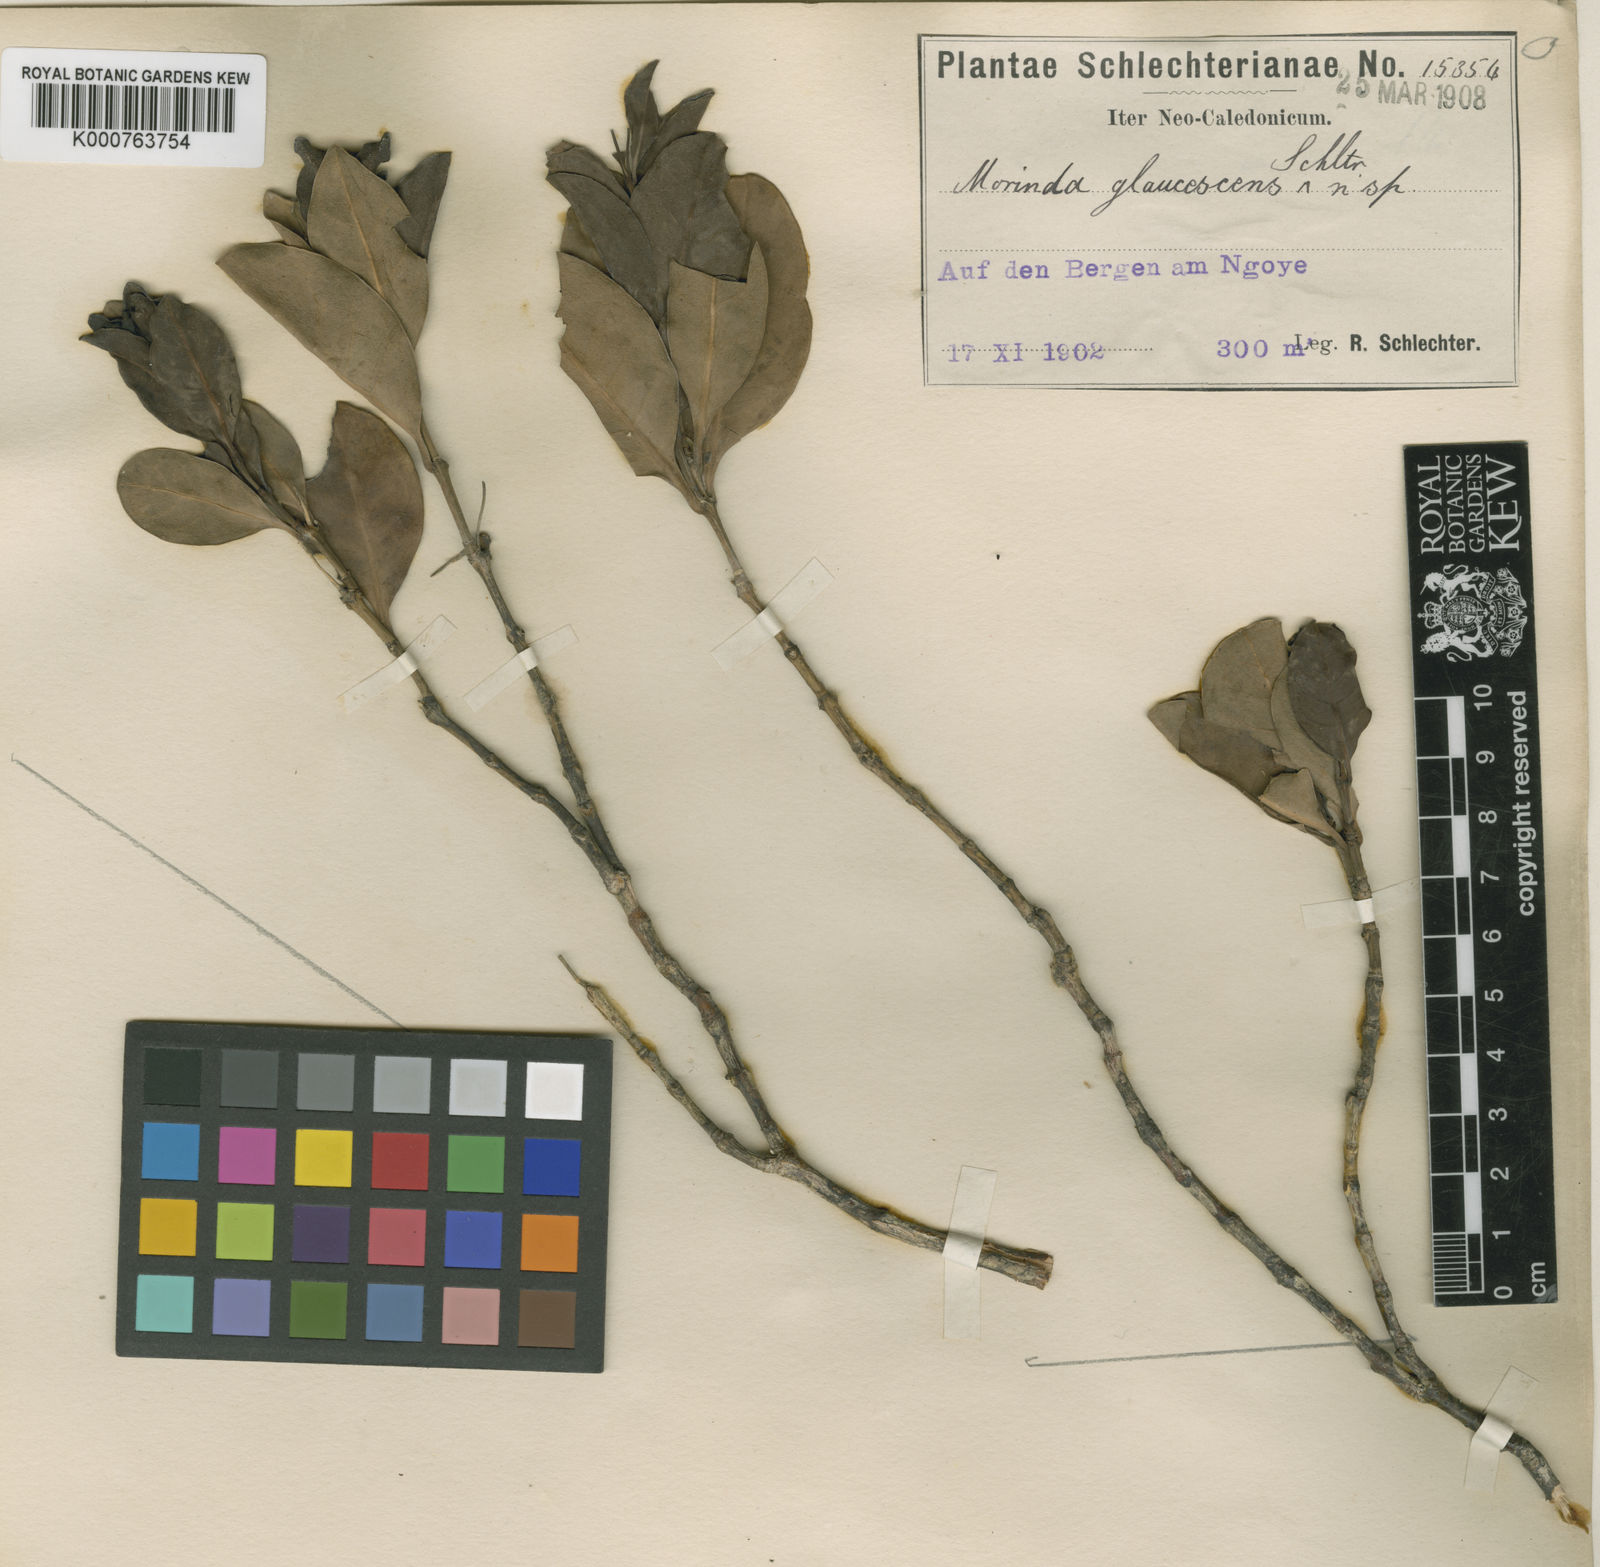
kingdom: Plantae
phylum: Tracheophyta
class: Magnoliopsida
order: Gentianales
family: Rubiaceae
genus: Gynochthodes
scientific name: Gynochthodes glaucescens
